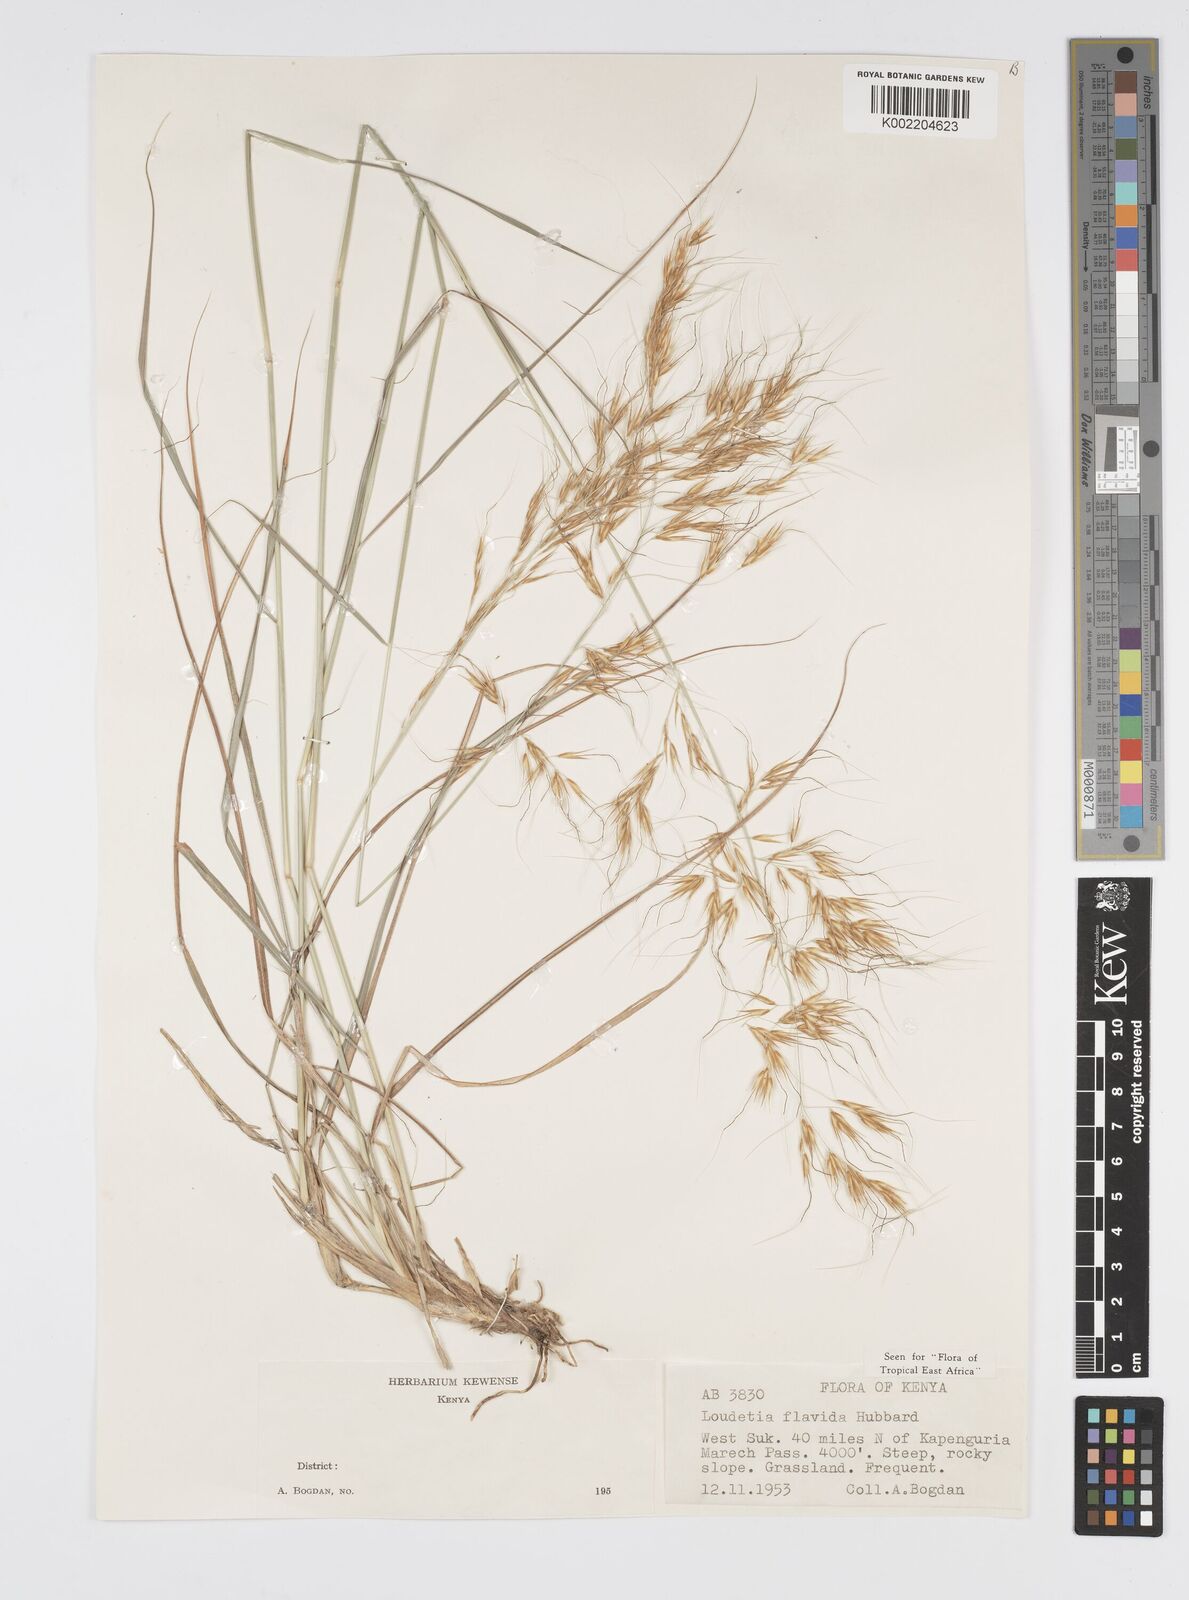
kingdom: Plantae
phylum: Tracheophyta
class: Liliopsida
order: Poales
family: Poaceae
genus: Loudetia
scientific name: Loudetia flavida
